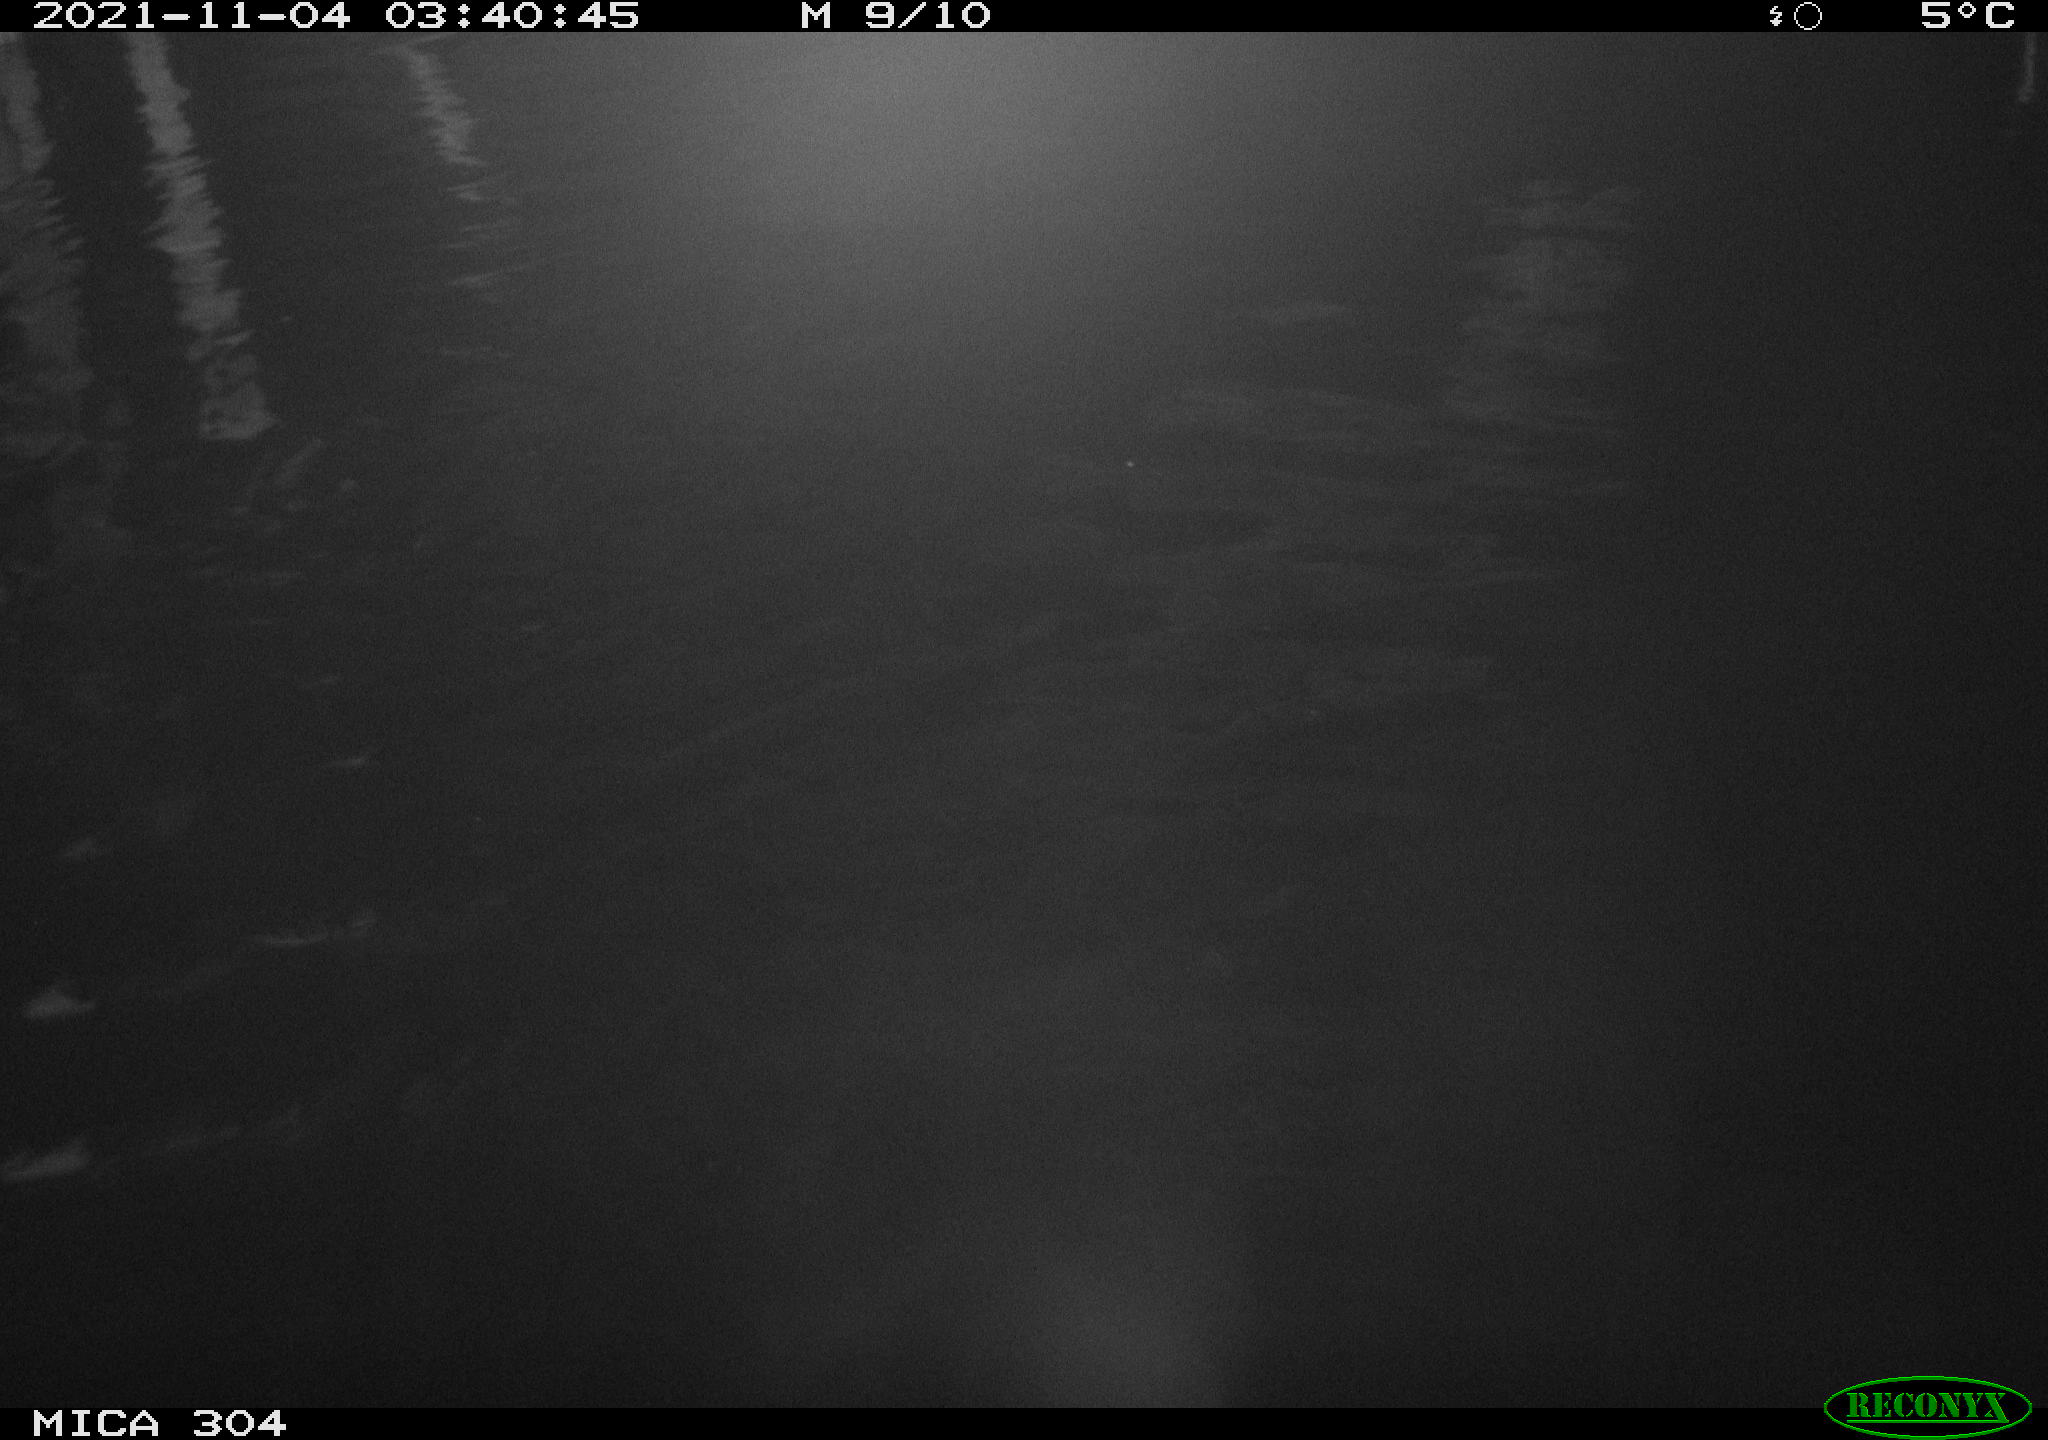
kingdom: Animalia
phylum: Chordata
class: Mammalia
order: Rodentia
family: Cricetidae
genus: Ondatra
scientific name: Ondatra zibethicus
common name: Muskrat
